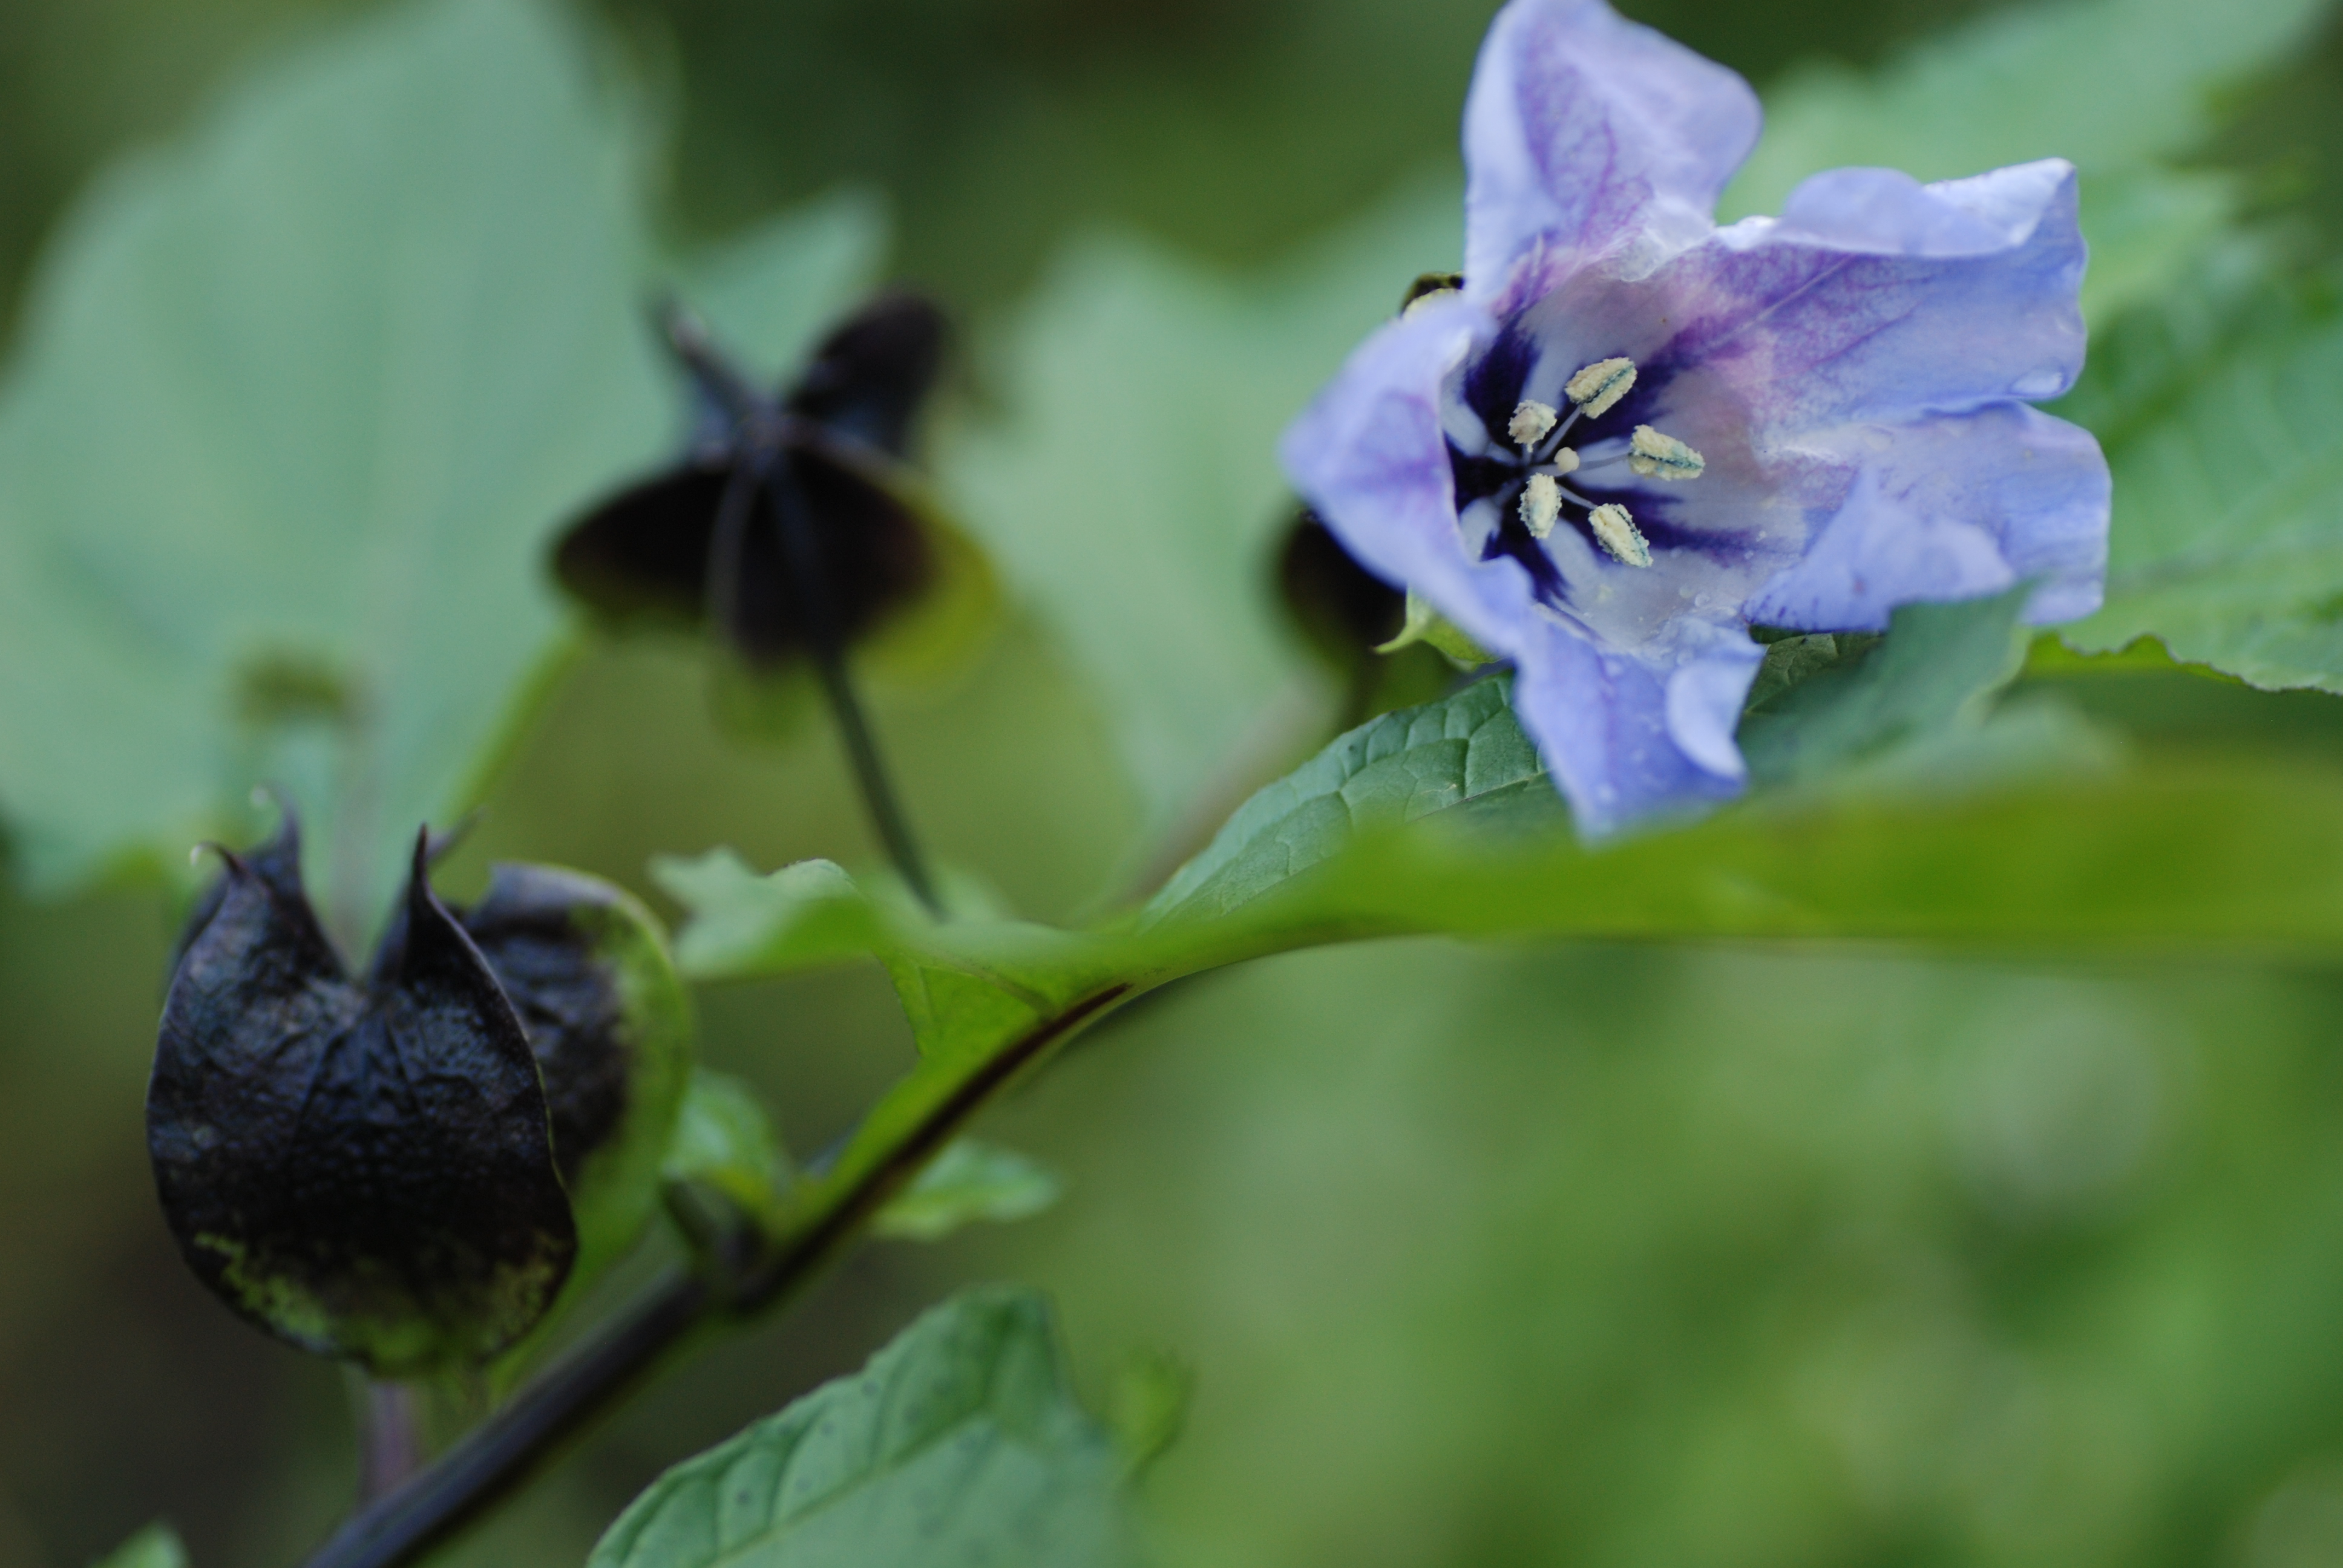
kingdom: Plantae
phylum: Tracheophyta
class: Magnoliopsida
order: Solanales
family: Solanaceae
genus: Nicandra
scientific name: Nicandra physalodes
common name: Apple-of-peru
